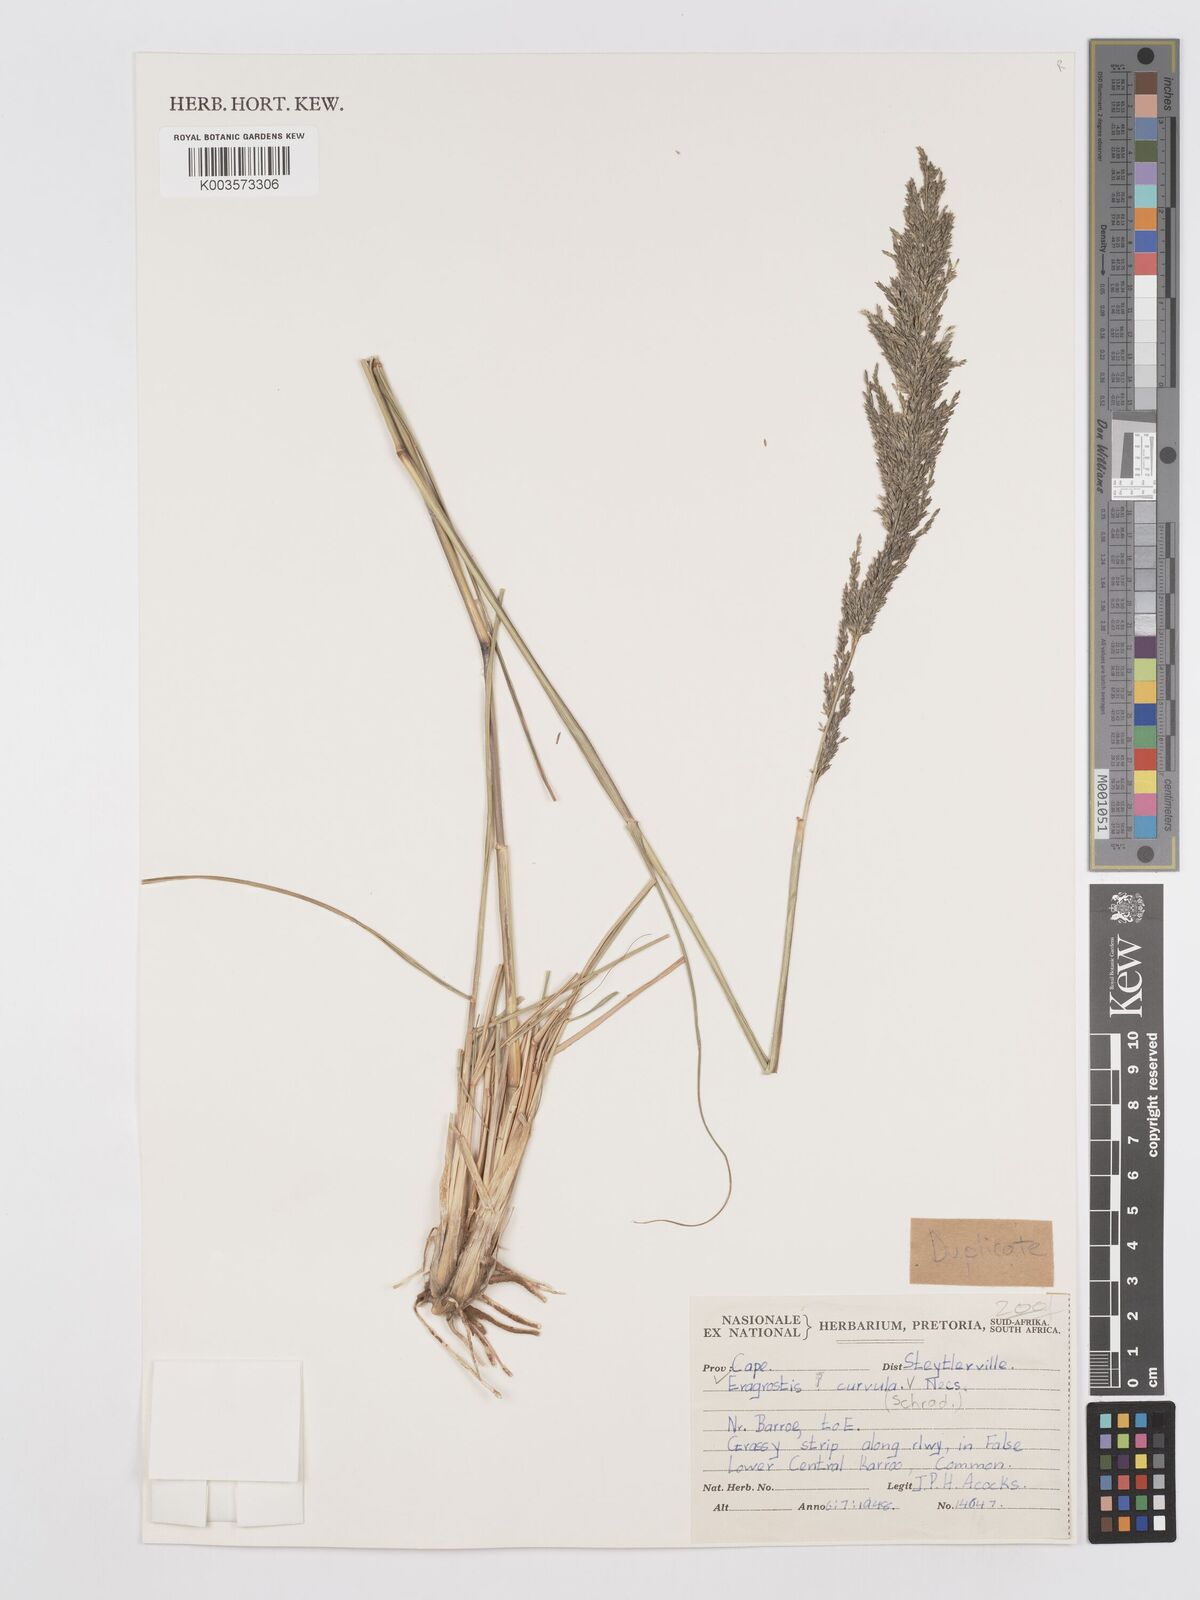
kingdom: Plantae
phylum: Tracheophyta
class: Liliopsida
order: Poales
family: Poaceae
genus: Eragrostis
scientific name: Eragrostis curvula
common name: African love-grass
